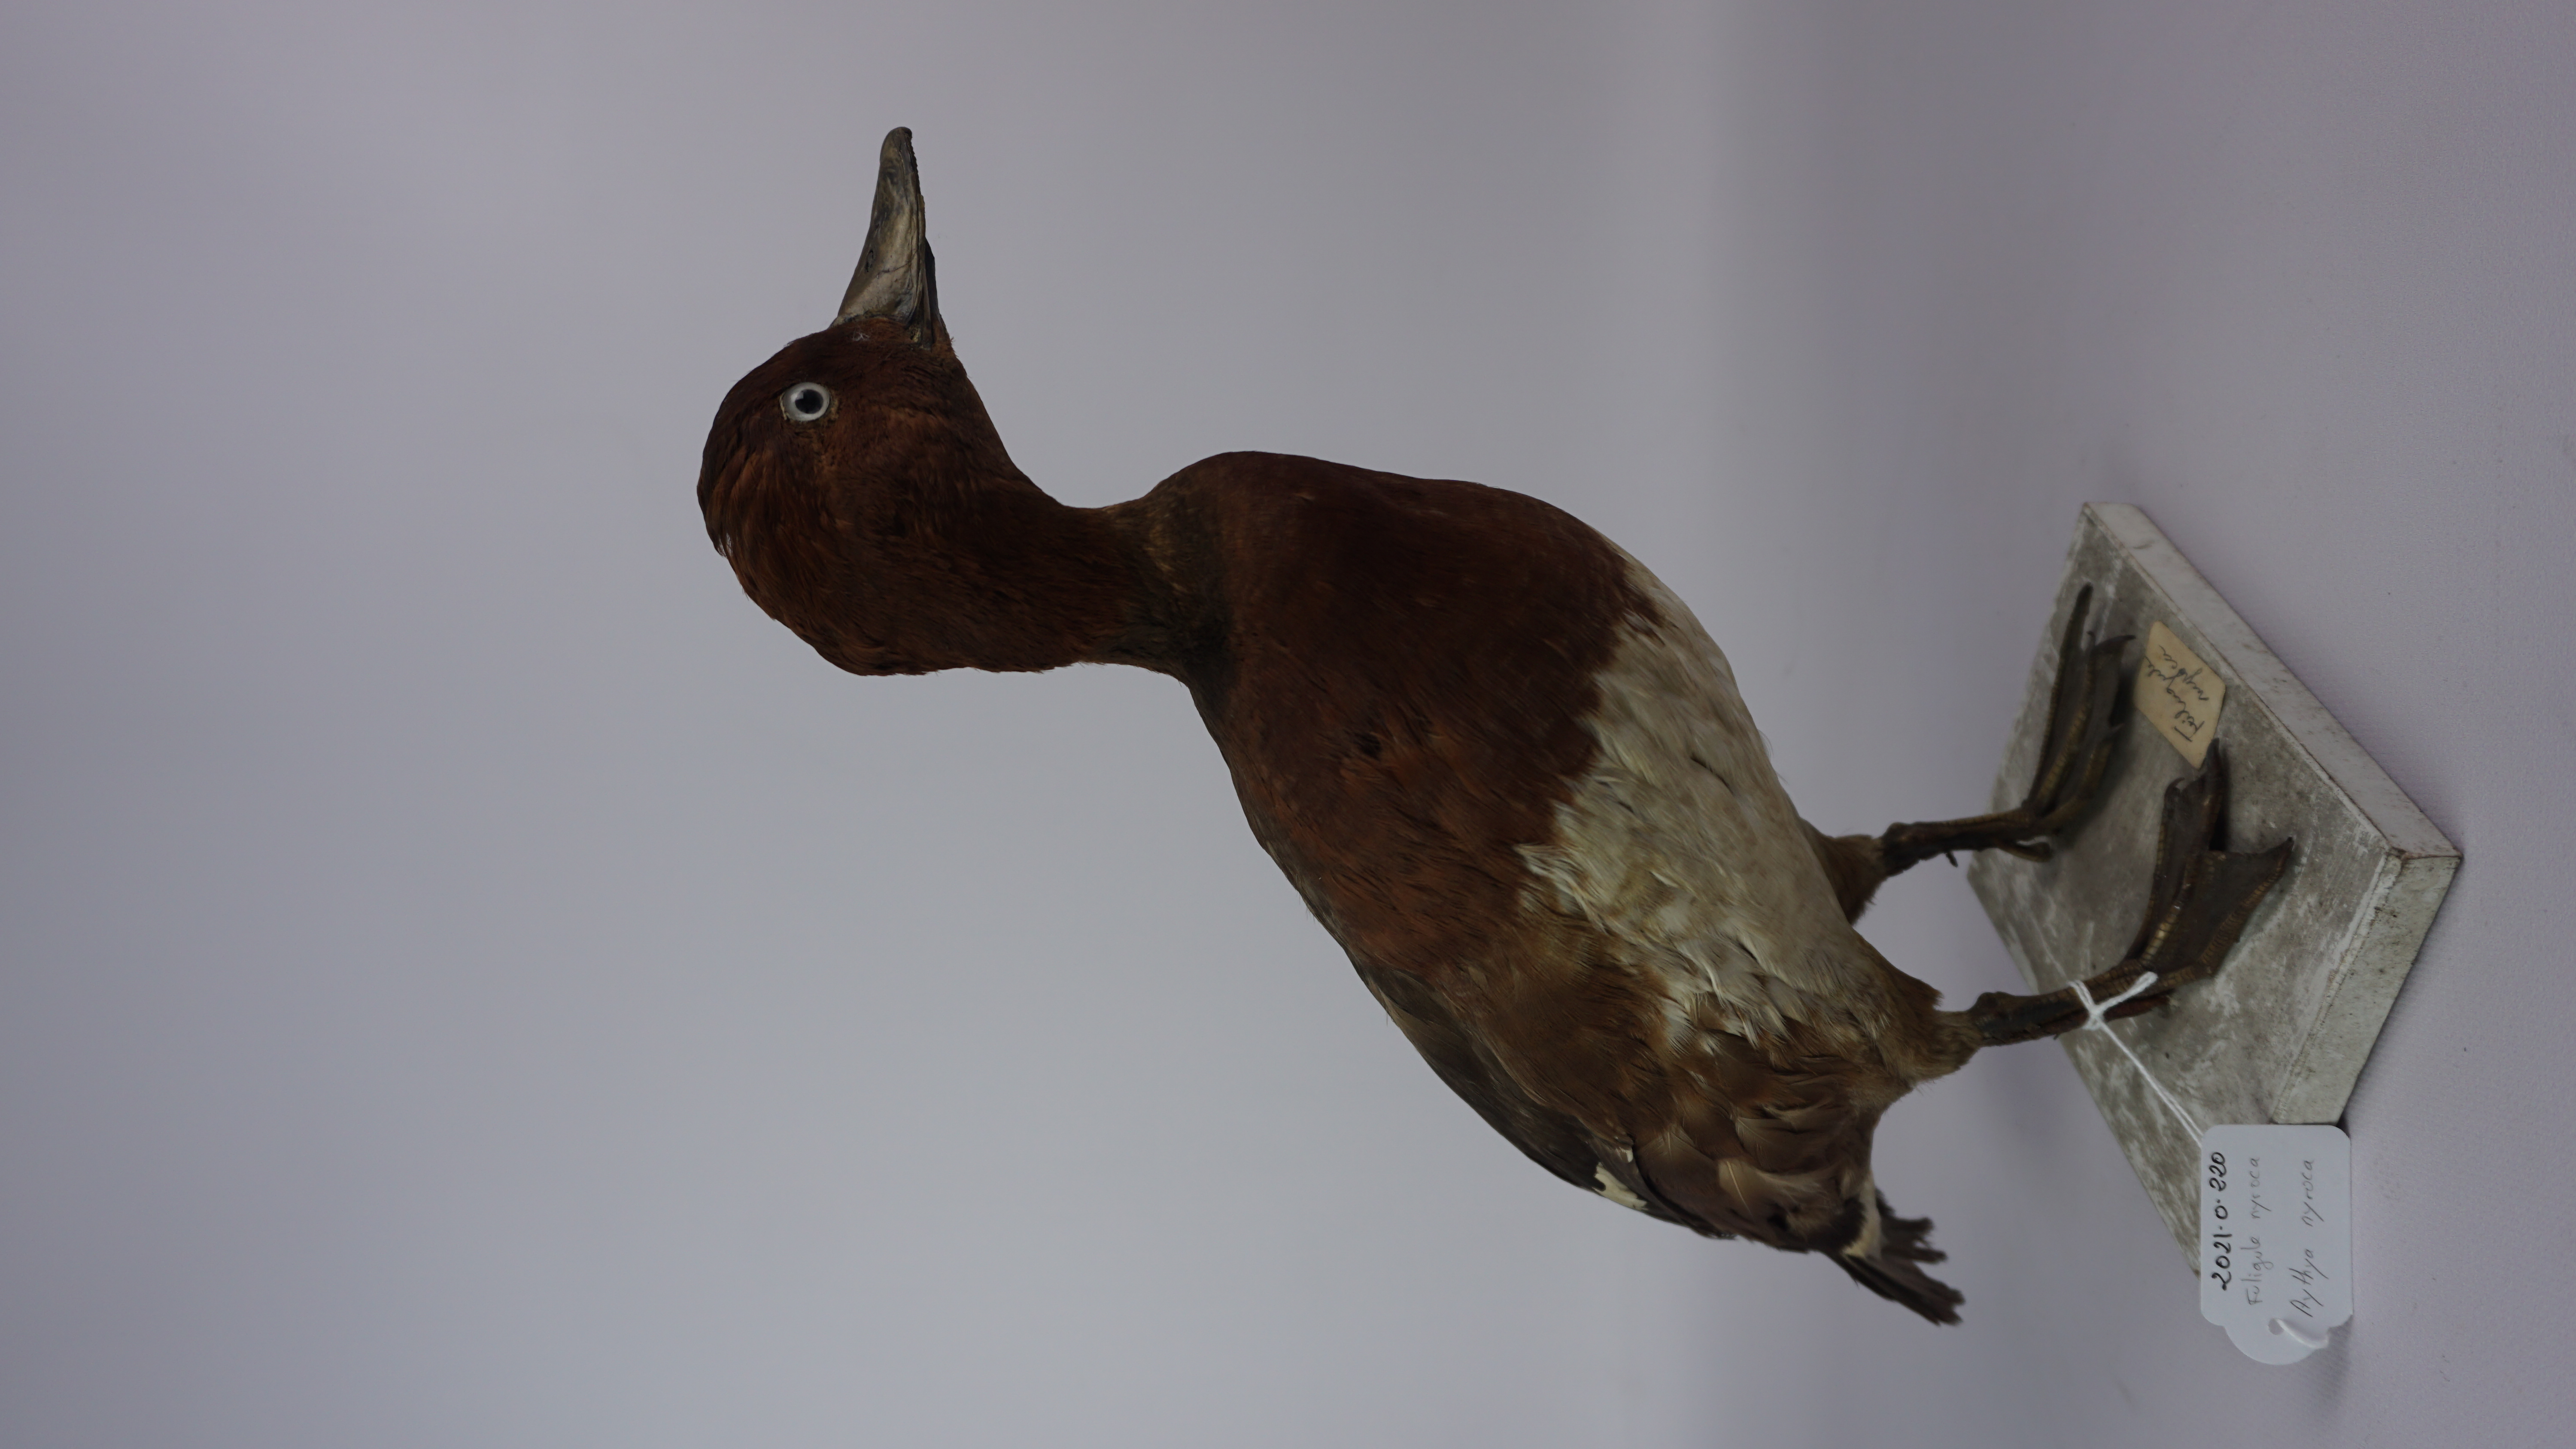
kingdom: Animalia
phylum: Chordata
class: Aves
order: Anseriformes
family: Anatidae
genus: Aythya
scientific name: Aythya nyroca
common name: Ferruginous duck
